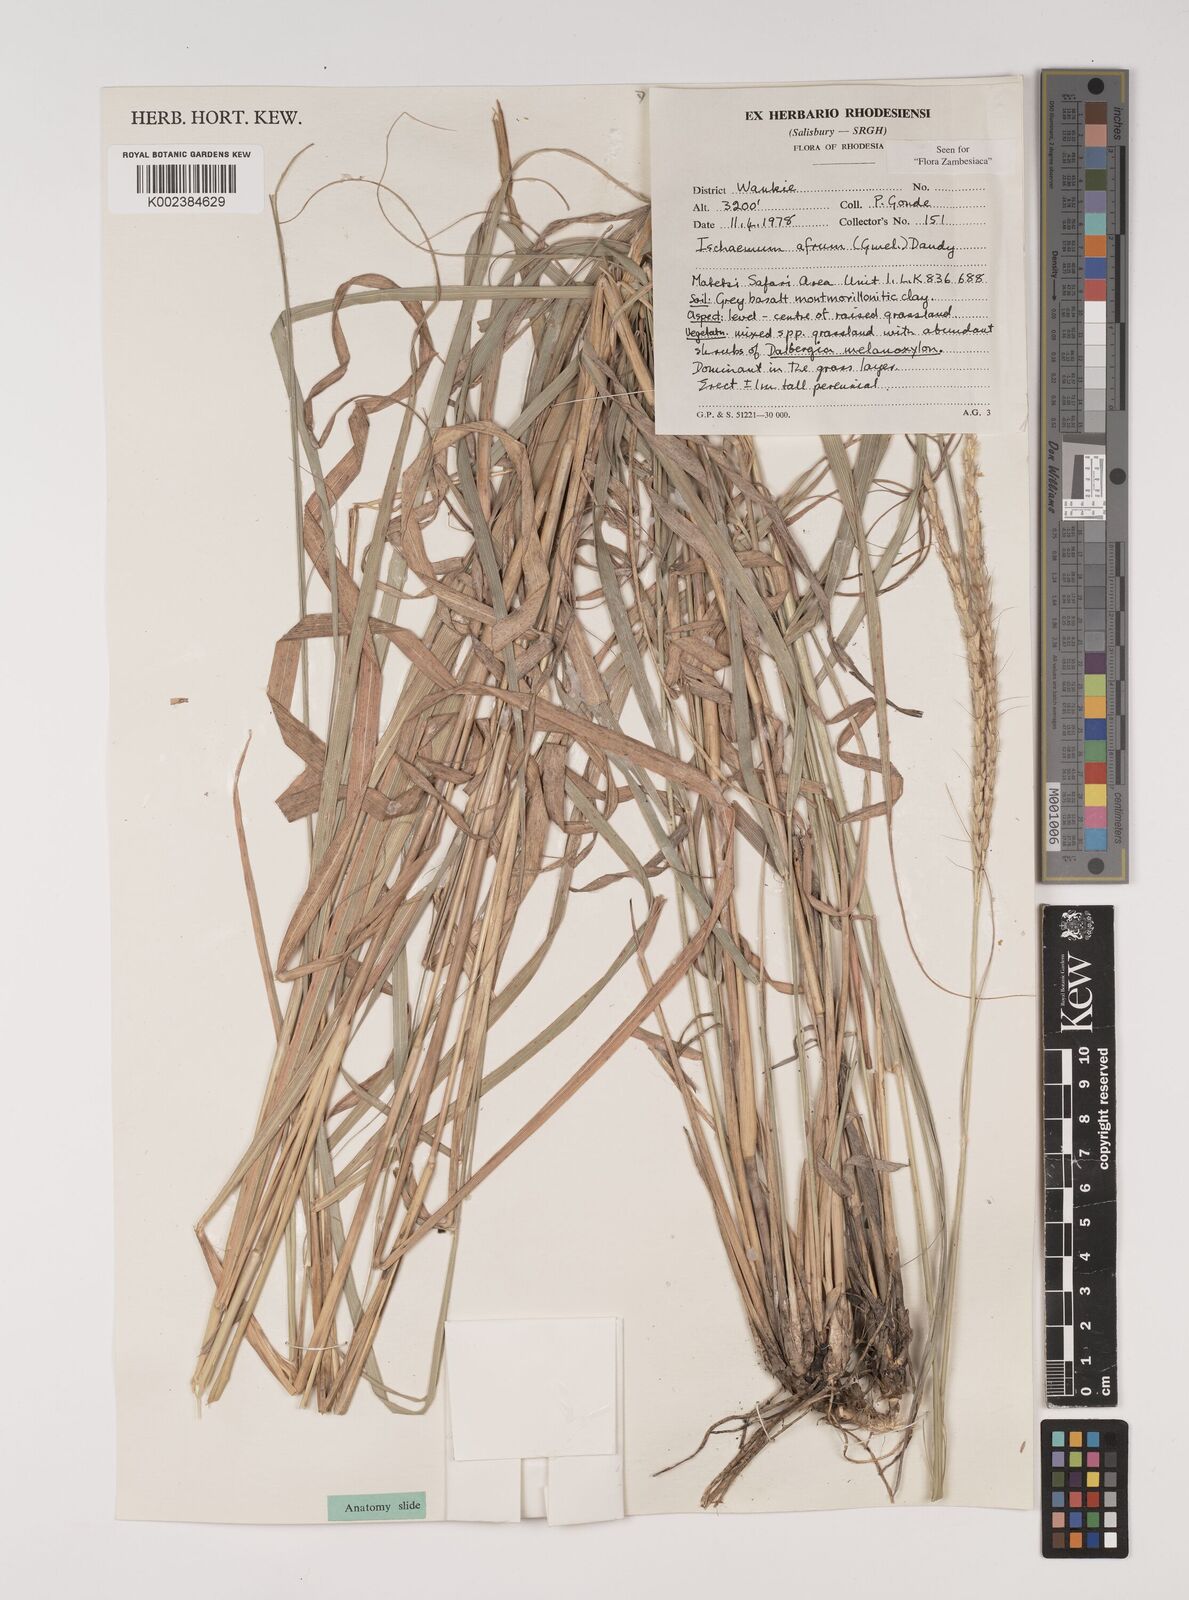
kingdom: Plantae
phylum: Tracheophyta
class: Liliopsida
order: Poales
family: Poaceae
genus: Ischaemum
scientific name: Ischaemum afrum
